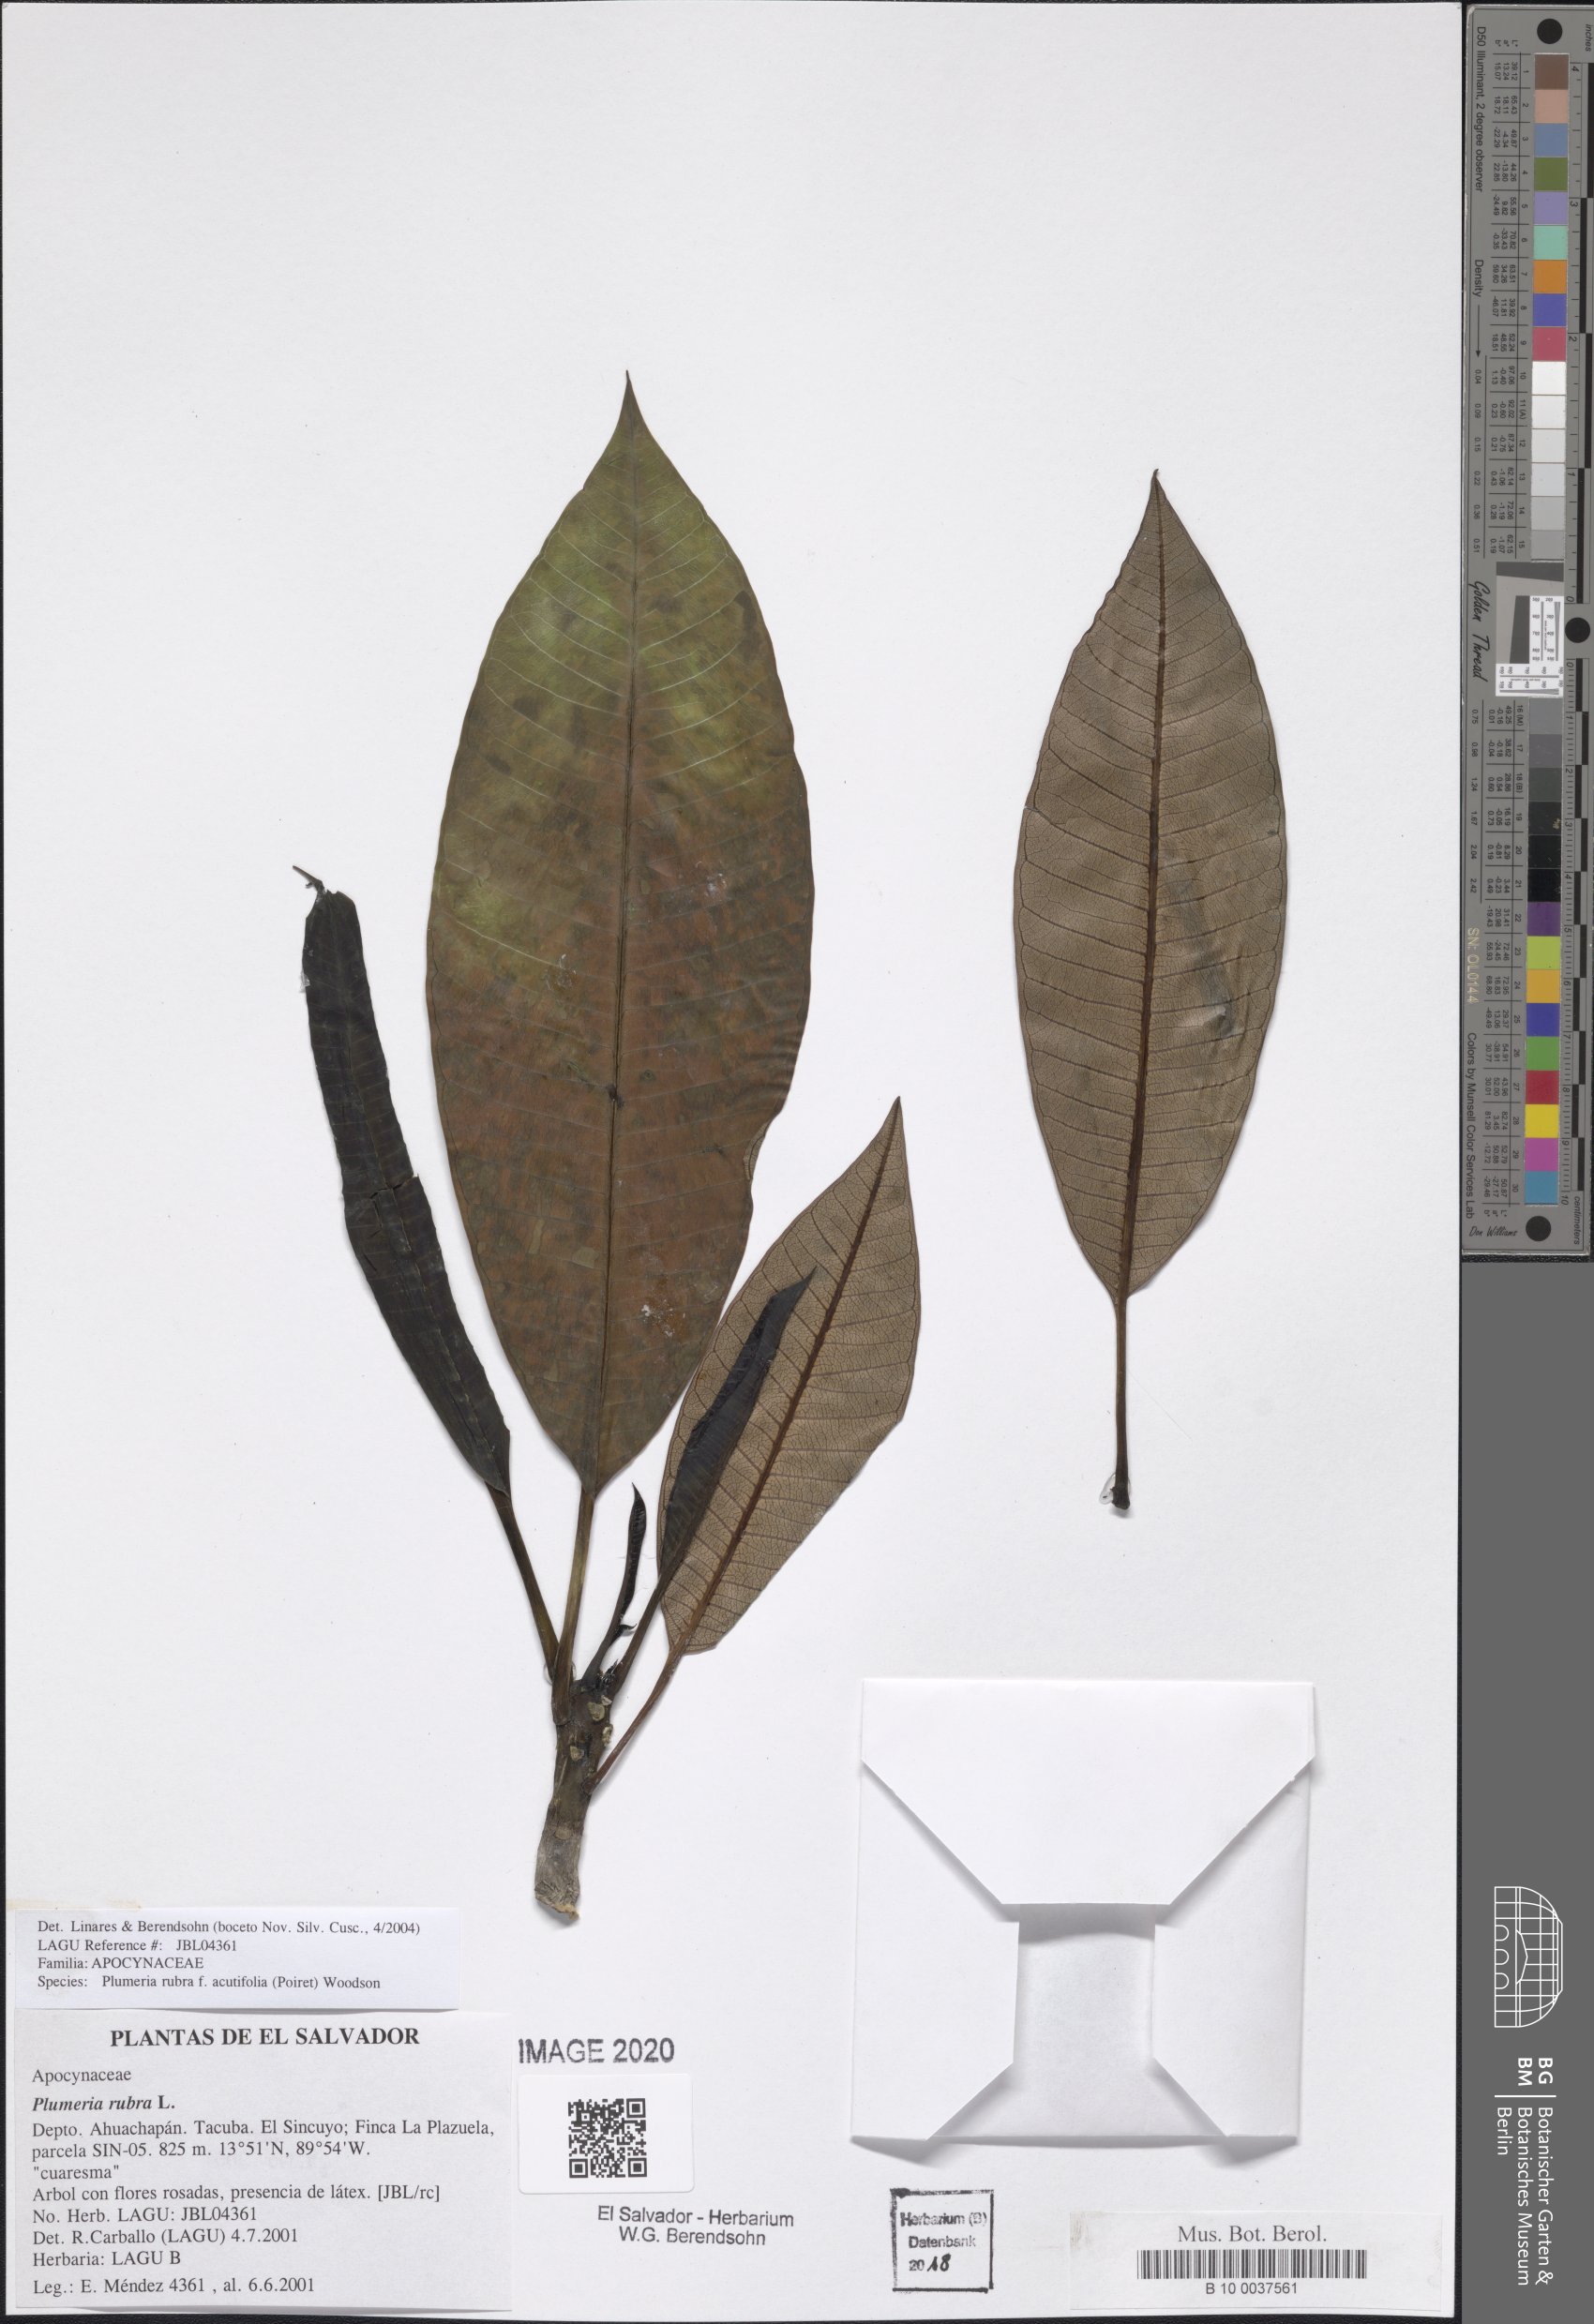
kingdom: Plantae
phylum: Tracheophyta
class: Magnoliopsida
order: Gentianales
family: Apocynaceae
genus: Plumeria
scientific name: Plumeria rubra
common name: Pagoda-tree
